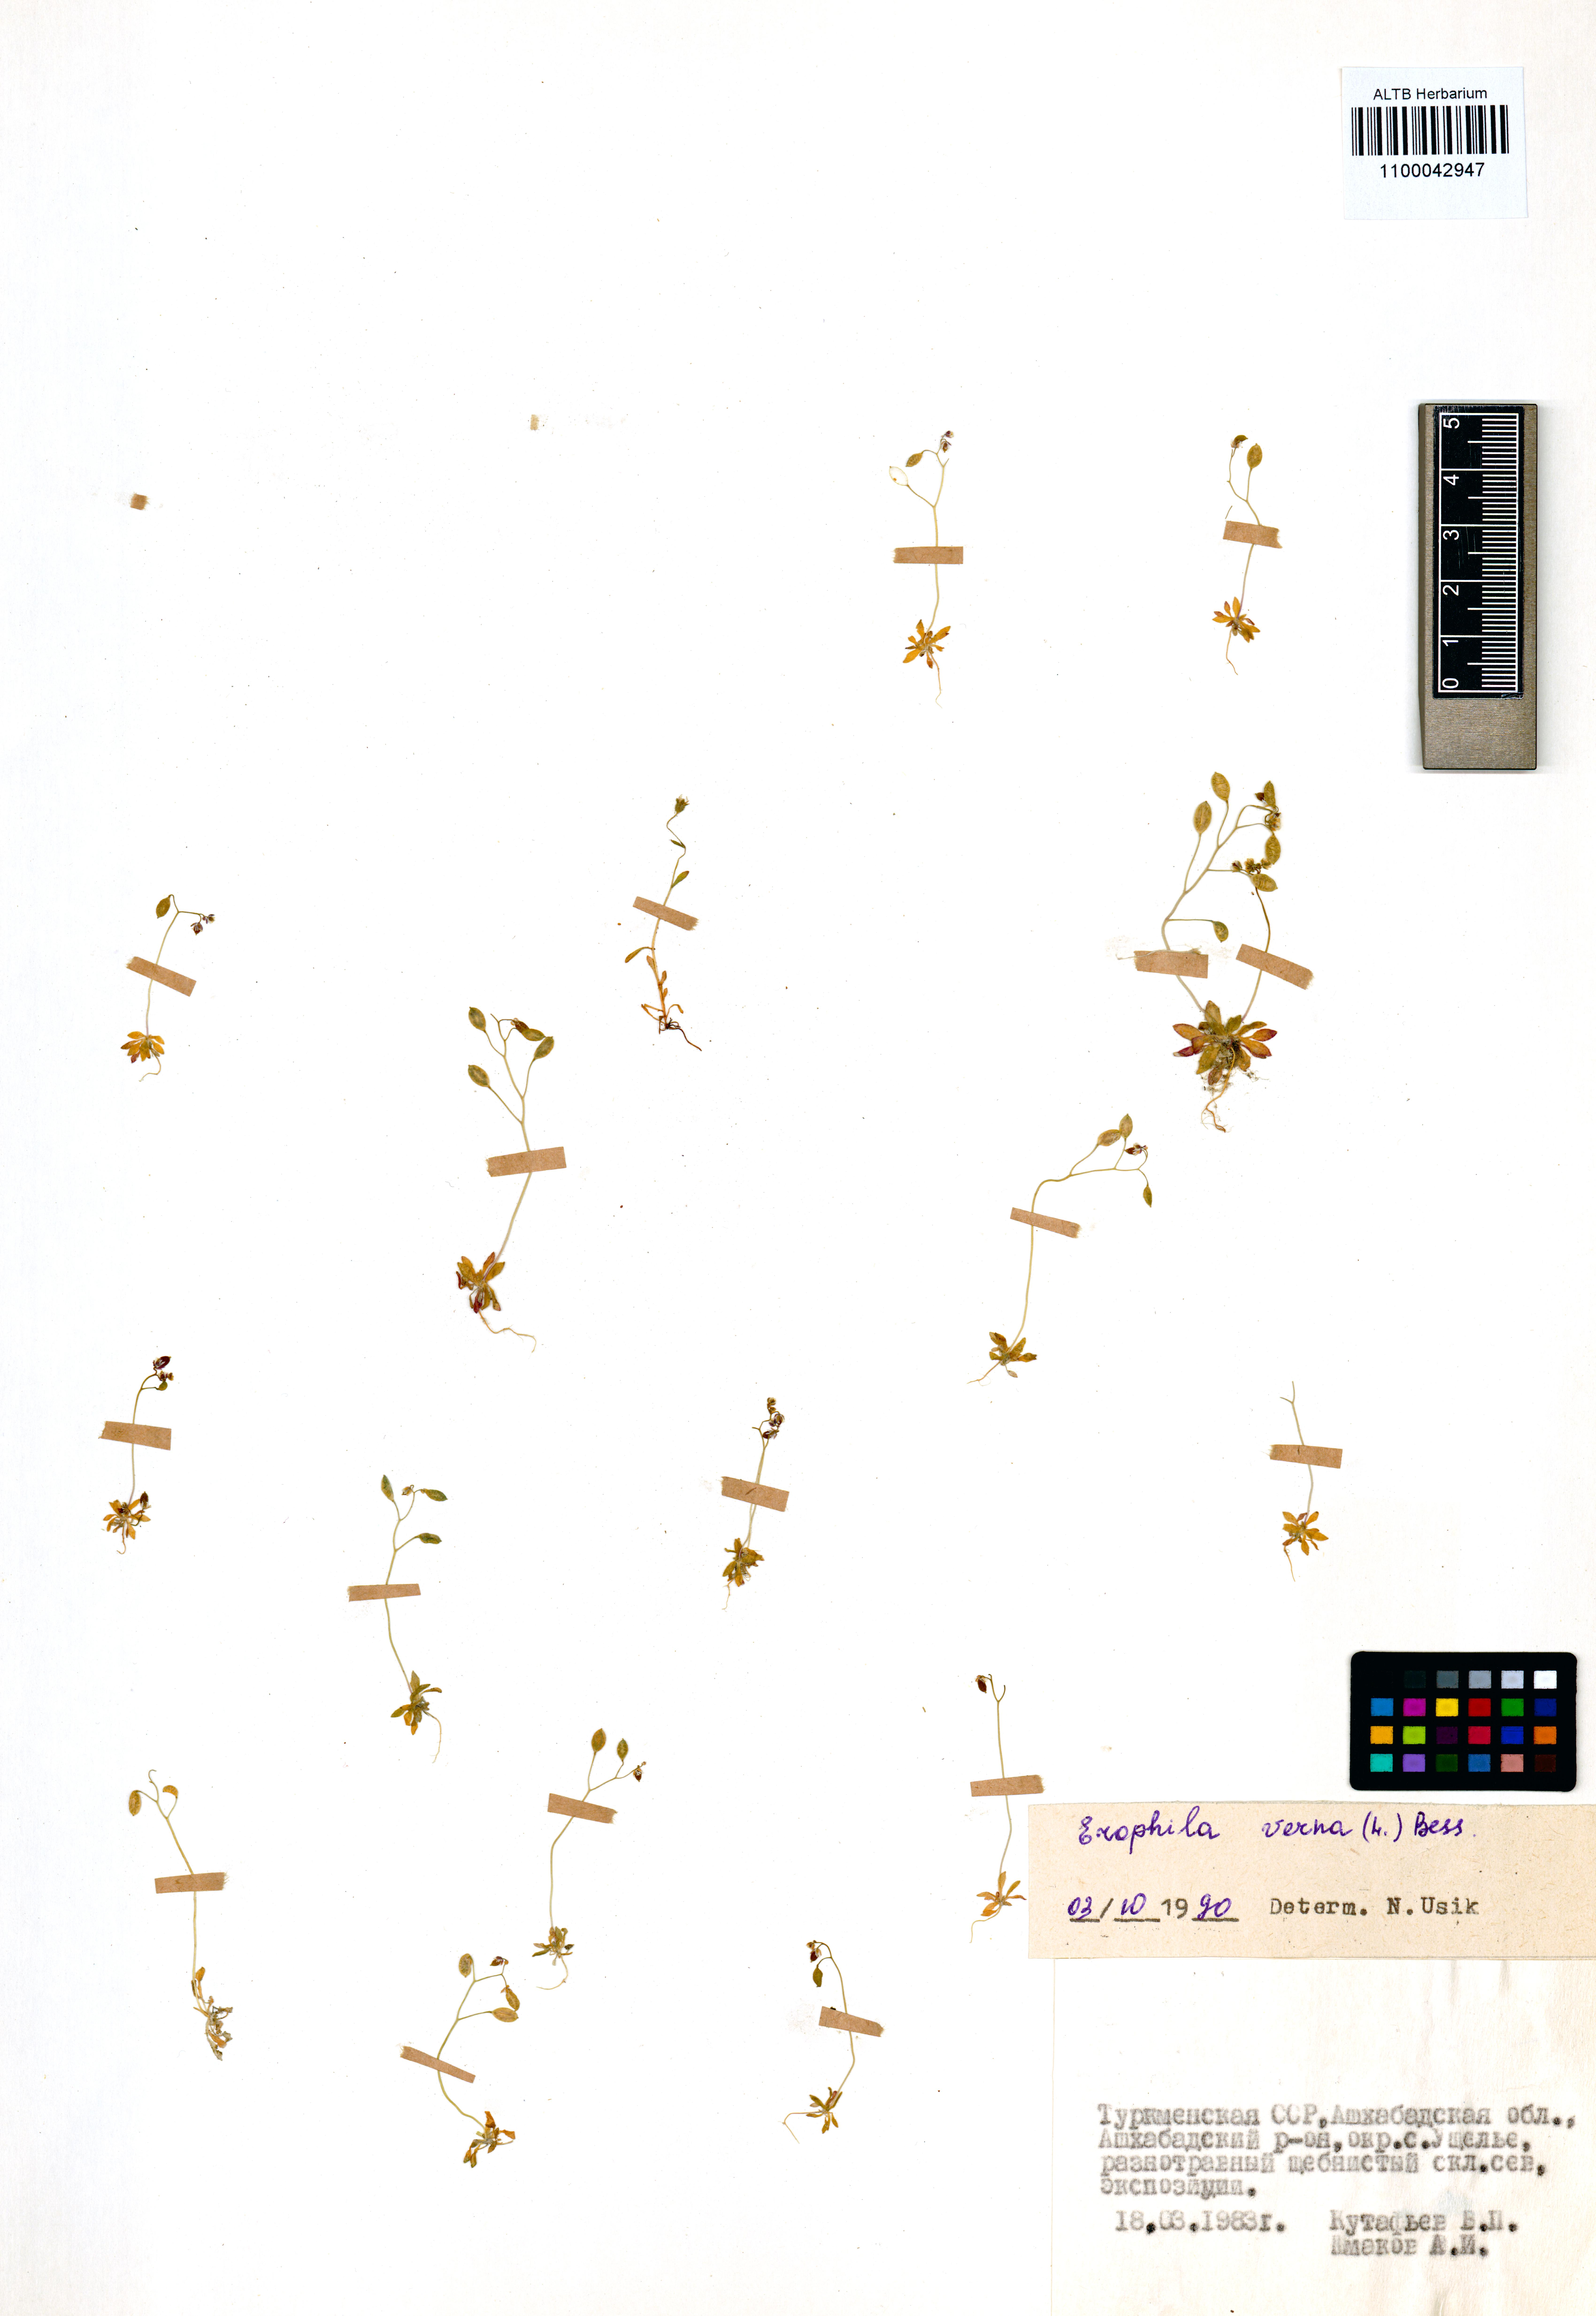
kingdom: Plantae
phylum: Tracheophyta
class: Magnoliopsida
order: Brassicales
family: Brassicaceae
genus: Draba
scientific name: Draba verna
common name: Spring draba
